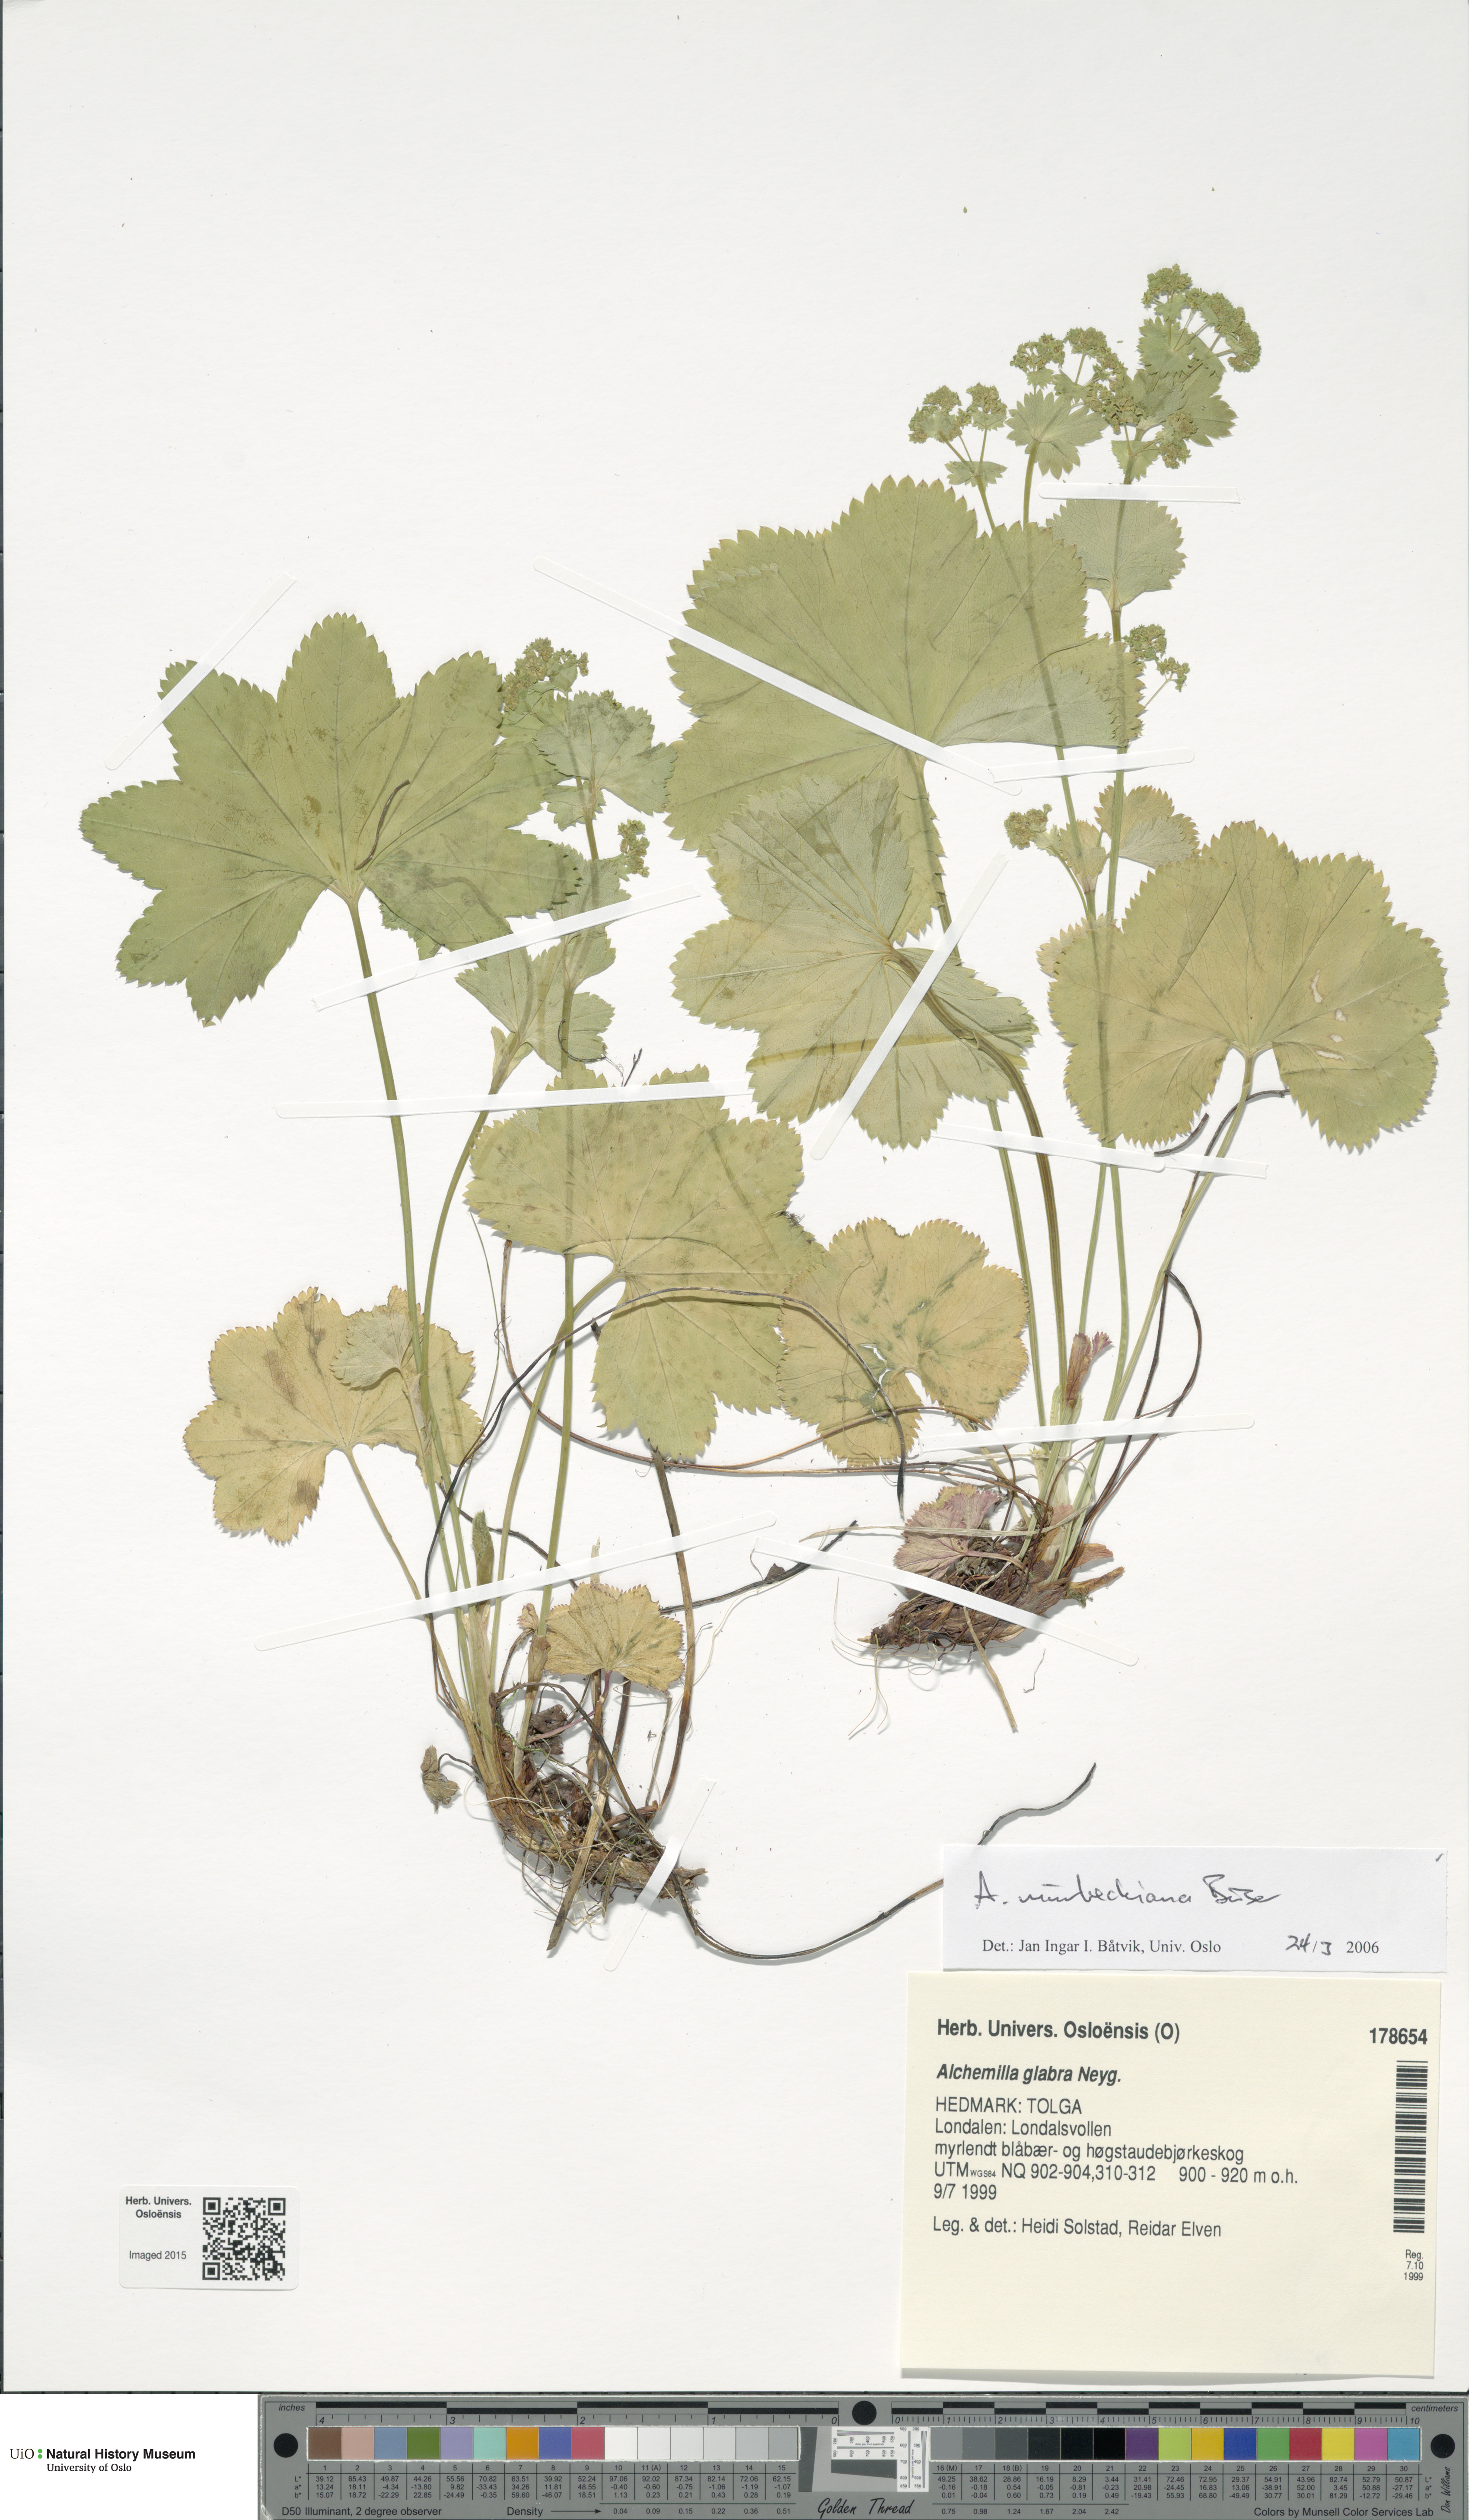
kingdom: Plantae
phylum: Tracheophyta
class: Magnoliopsida
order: Rosales
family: Rosaceae
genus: Alchemilla
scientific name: Alchemilla murbeckiana
